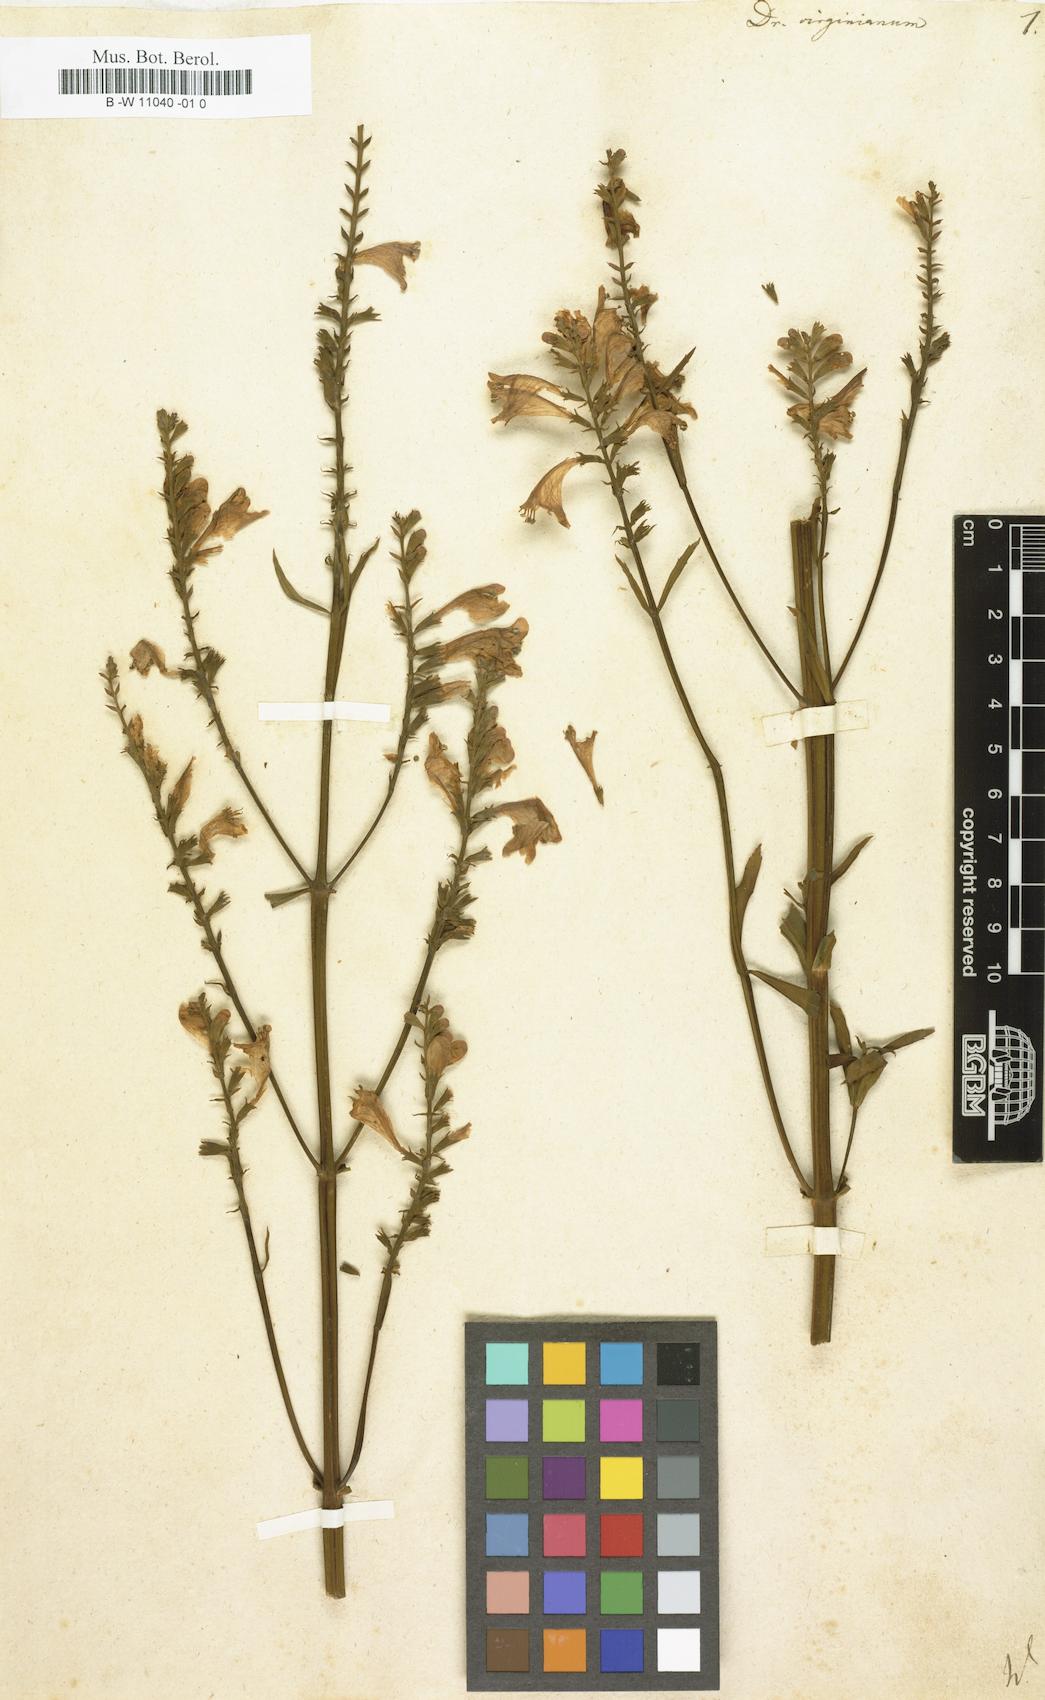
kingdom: Plantae
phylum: Tracheophyta
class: Magnoliopsida
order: Lamiales
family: Lamiaceae
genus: Physostegia
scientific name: Physostegia virginiana
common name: Obedient-plant
